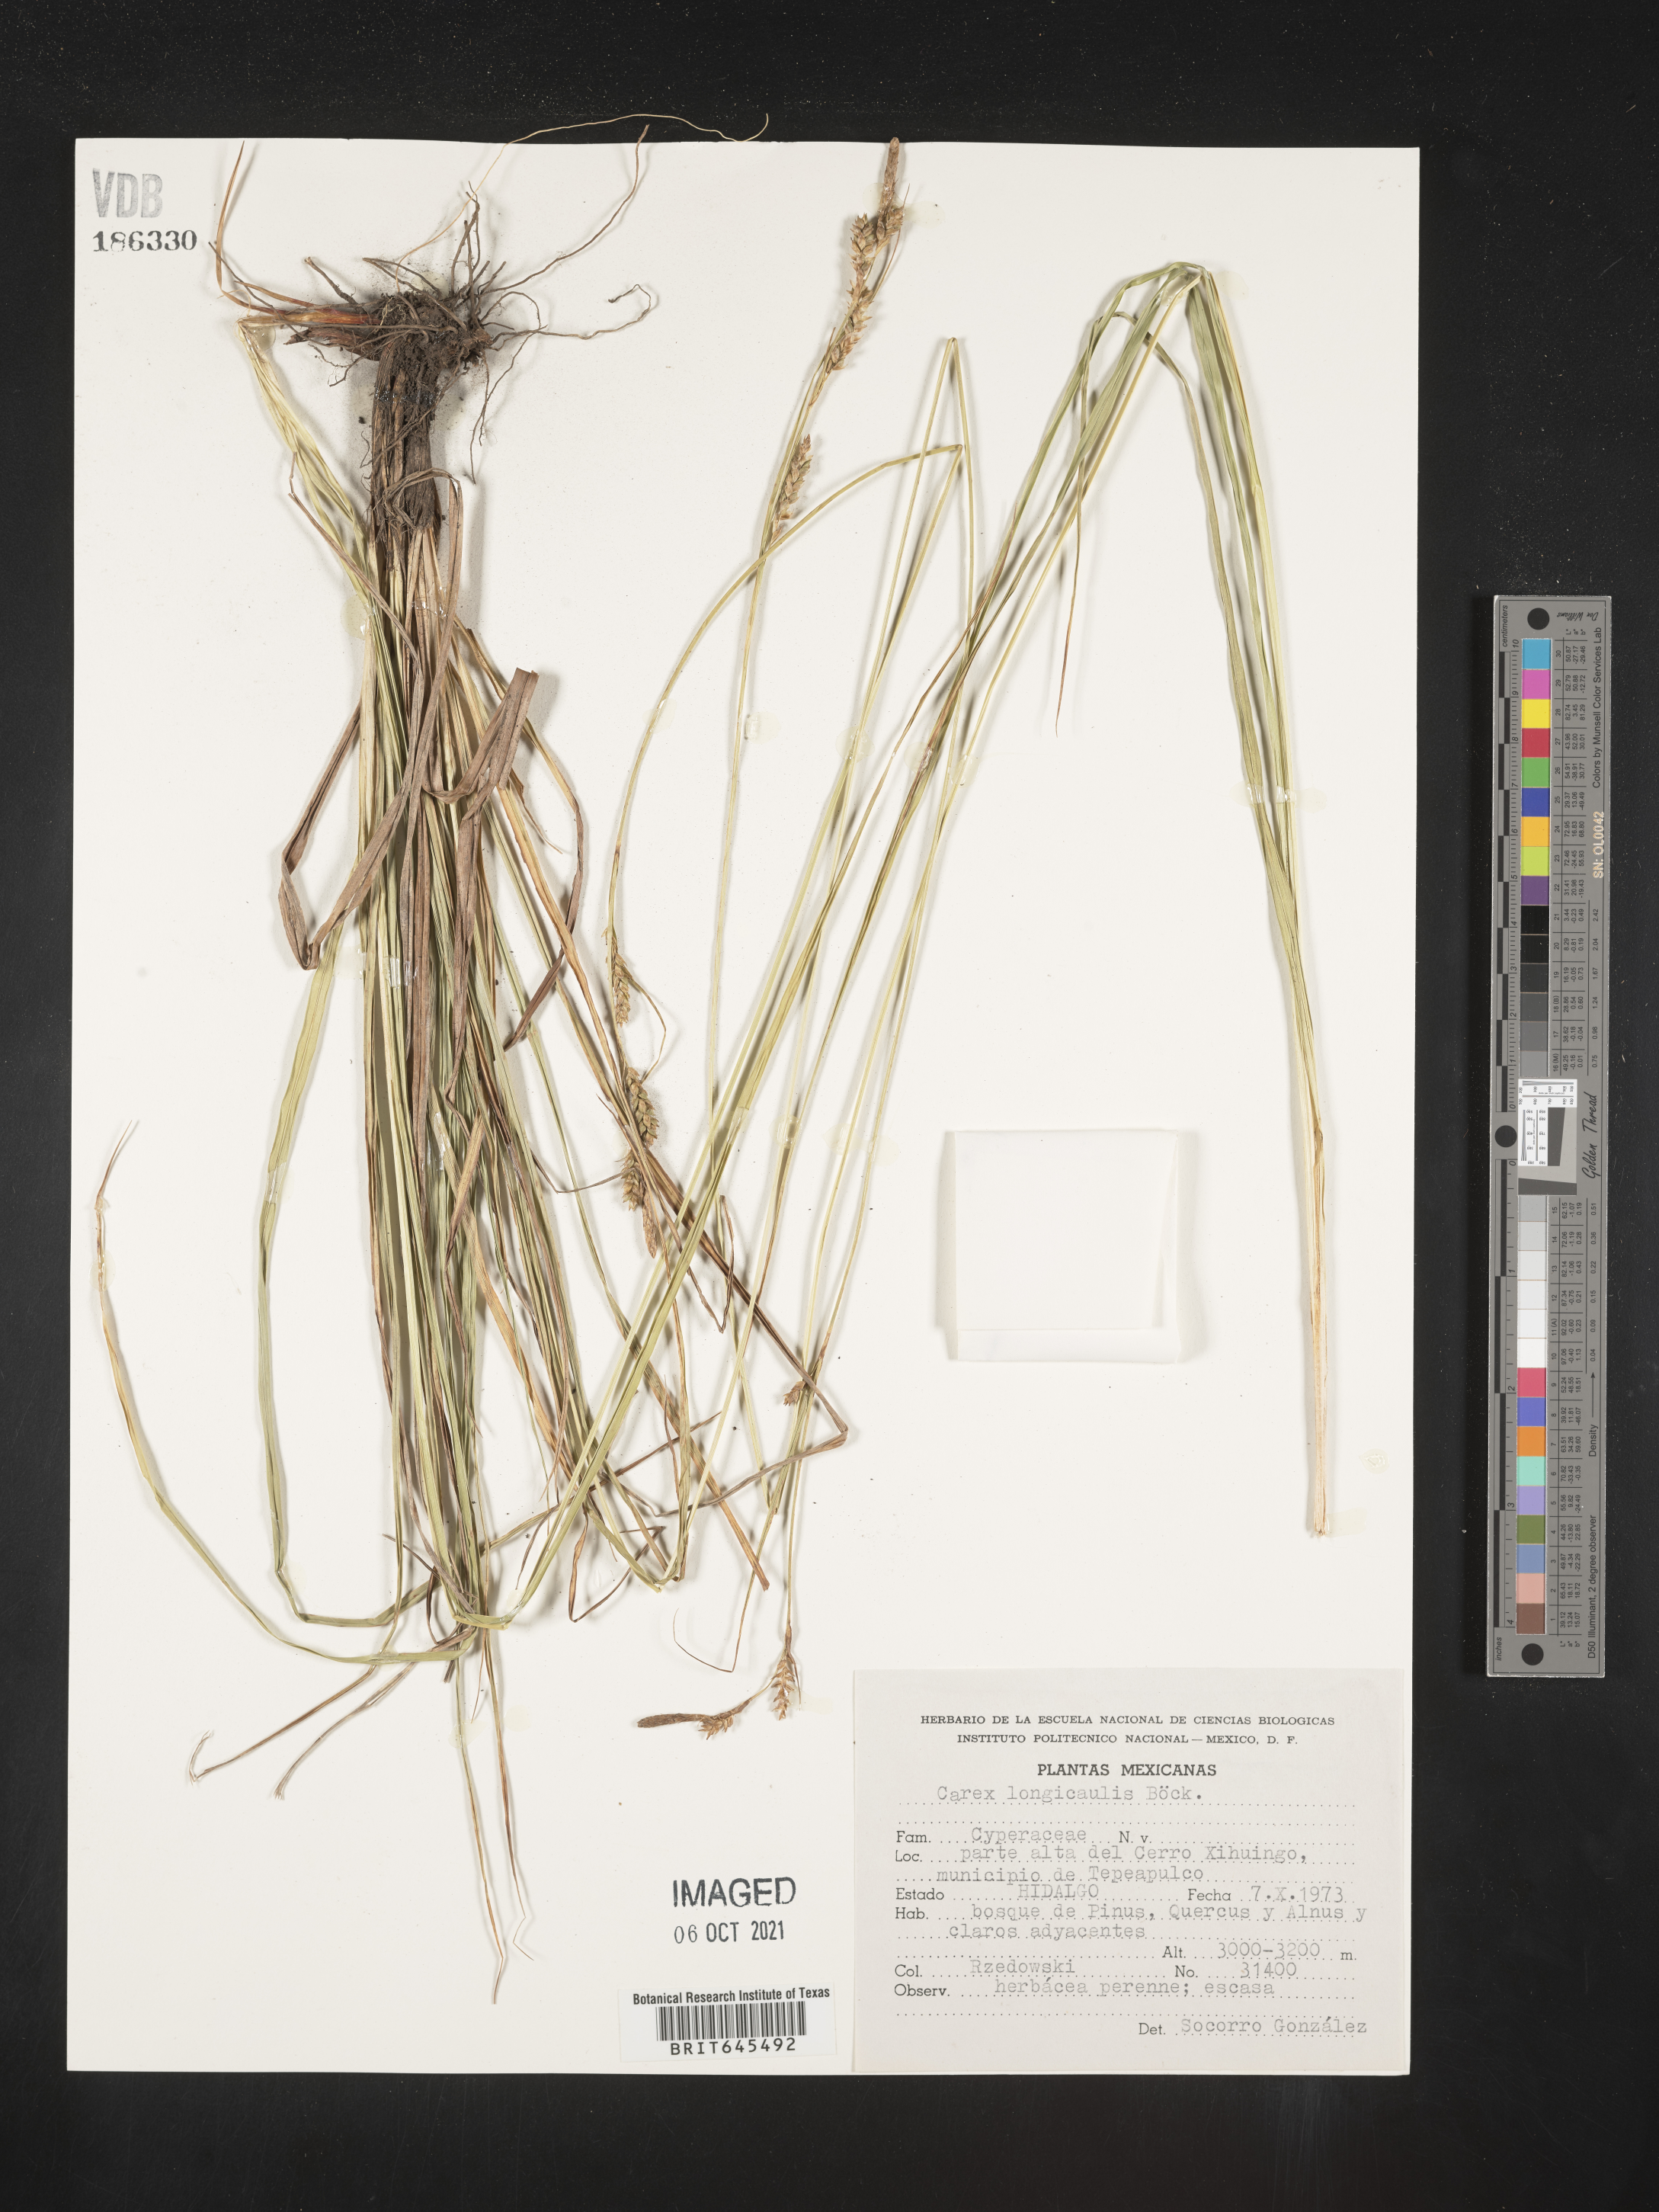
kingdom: Plantae
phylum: Tracheophyta
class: Liliopsida
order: Poales
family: Cyperaceae
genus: Carex
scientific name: Carex
